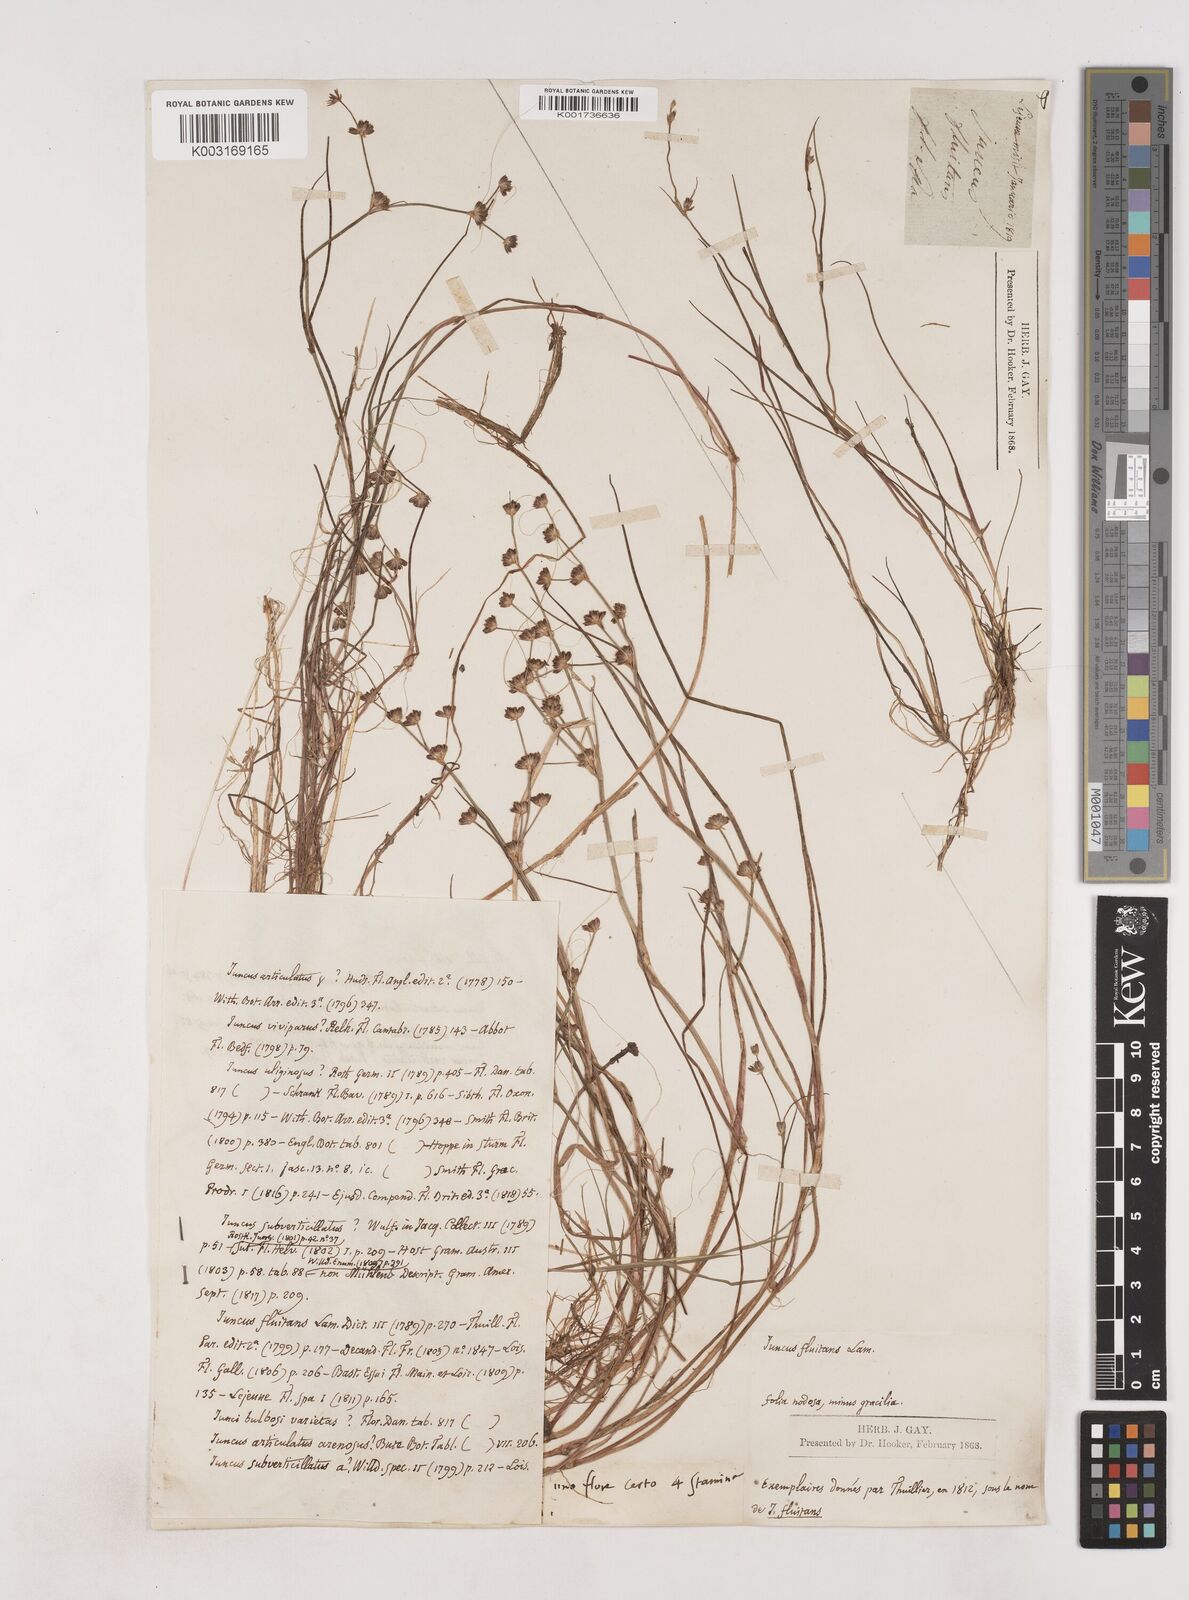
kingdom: Plantae
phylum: Tracheophyta
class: Liliopsida
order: Poales
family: Juncaceae
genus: Juncus
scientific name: Juncus bulbosus
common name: Bulbous rush
